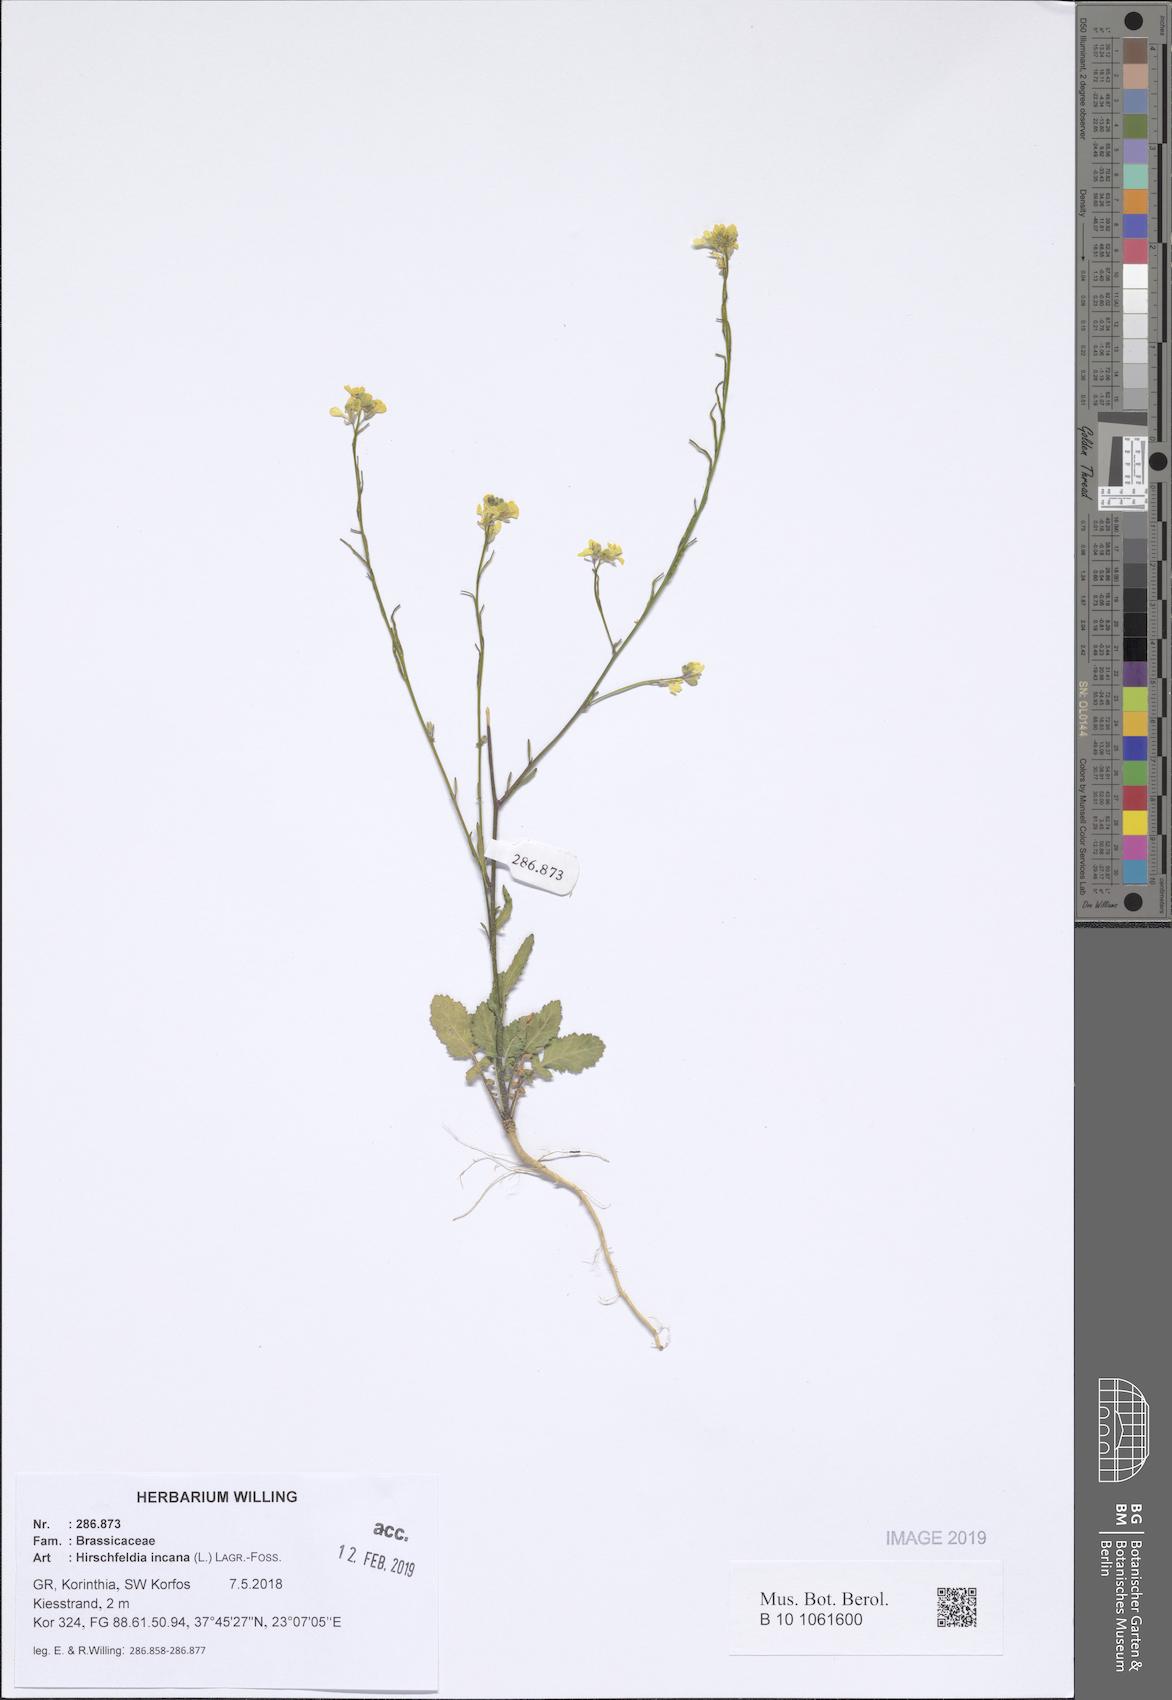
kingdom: Plantae
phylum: Tracheophyta
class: Magnoliopsida
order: Brassicales
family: Brassicaceae
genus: Hirschfeldia
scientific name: Hirschfeldia incana
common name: Hoary mustard
